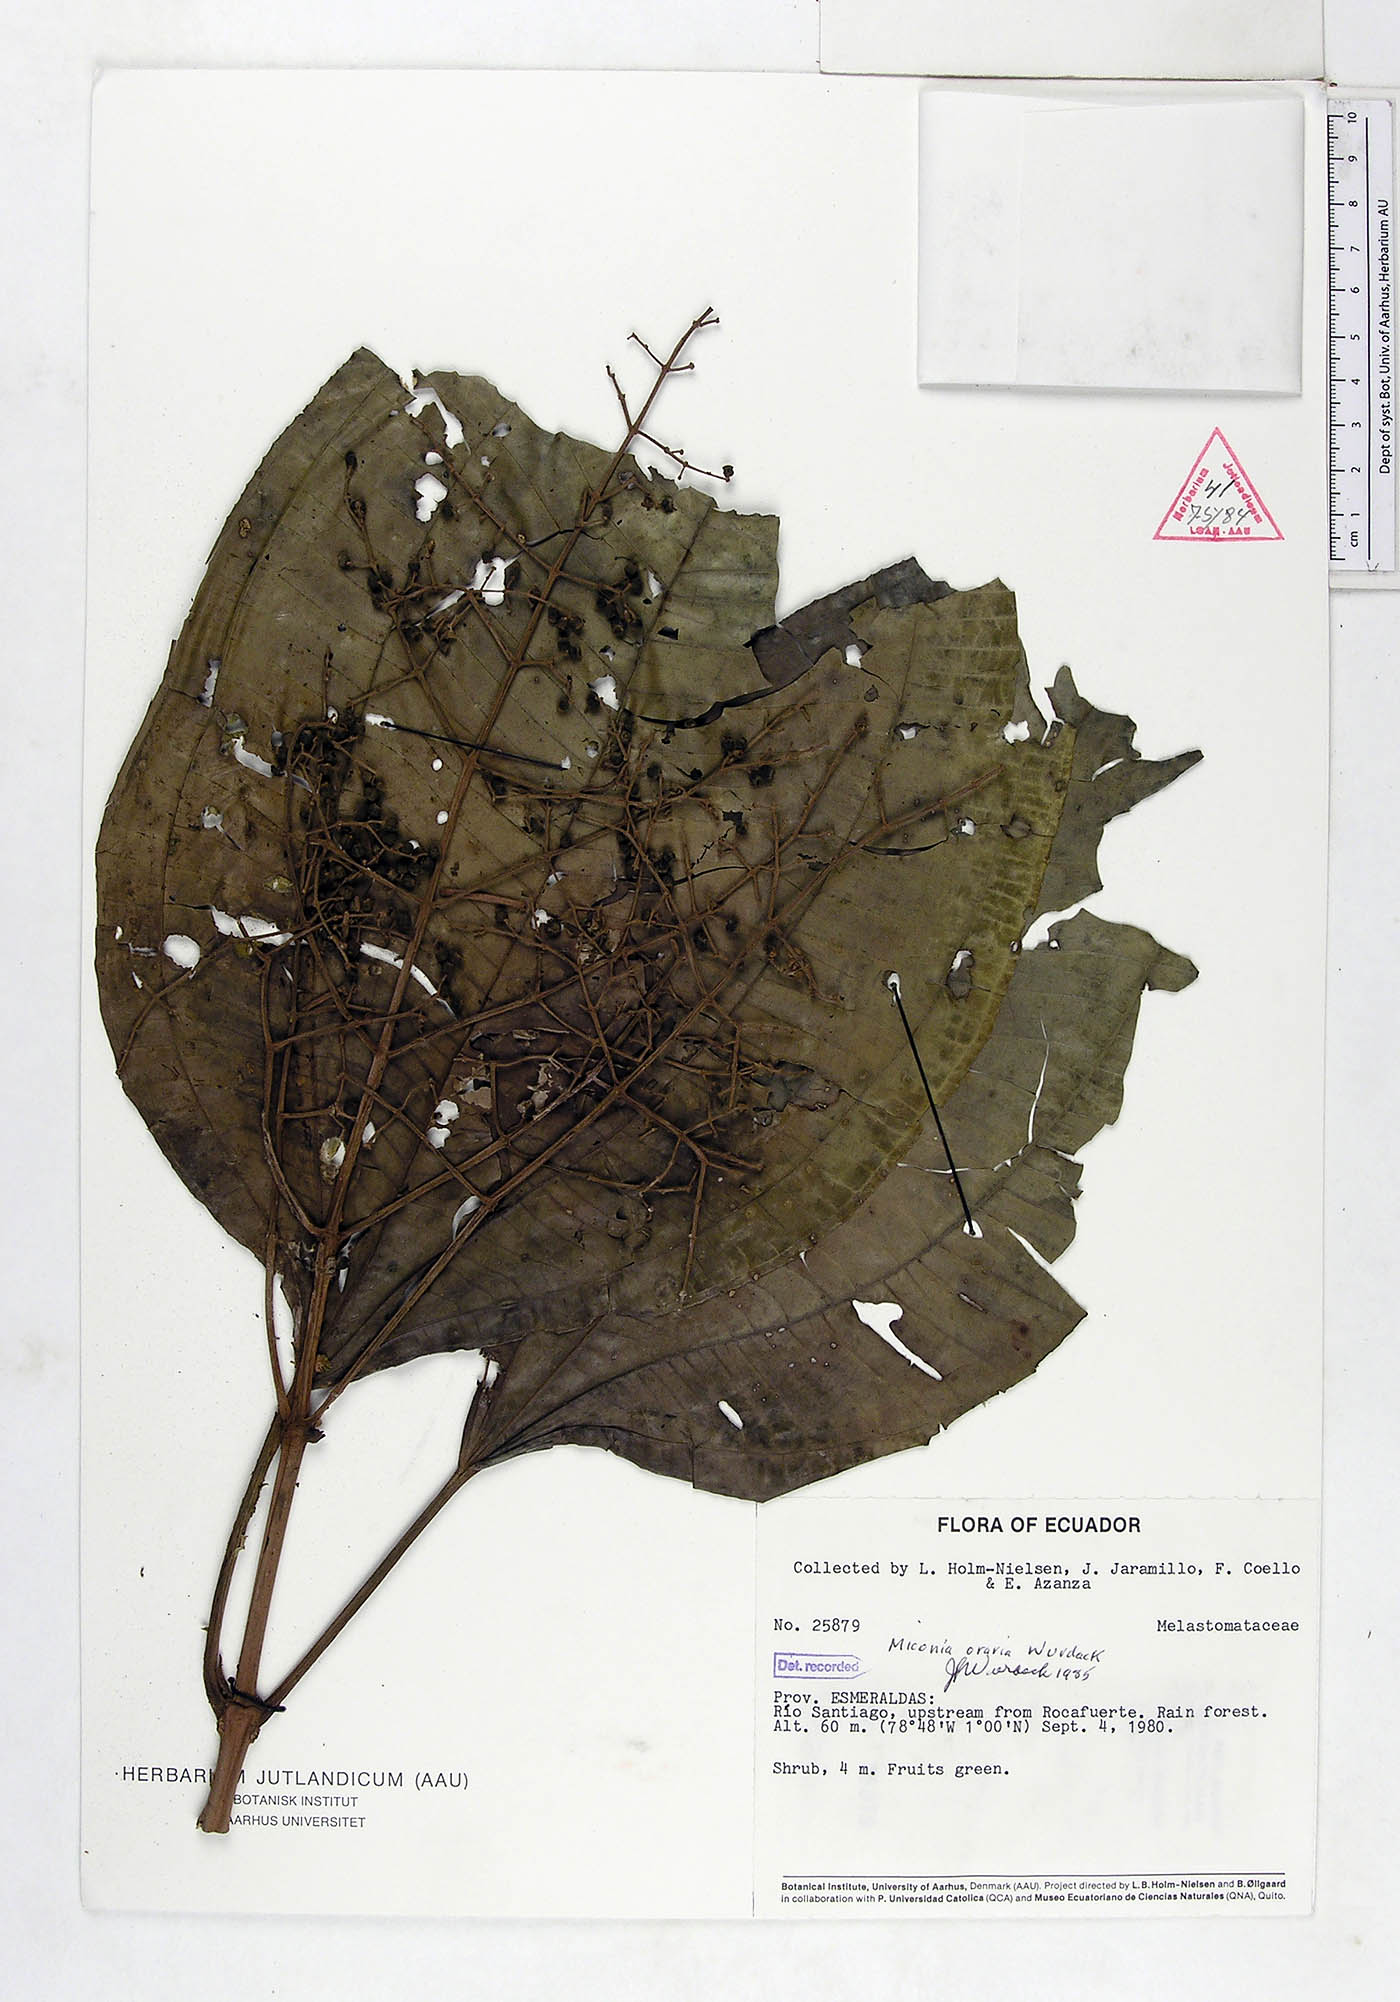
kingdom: Plantae
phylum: Tracheophyta
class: Magnoliopsida
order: Myrtales
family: Melastomataceae
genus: Miconia
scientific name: Miconia oraria
